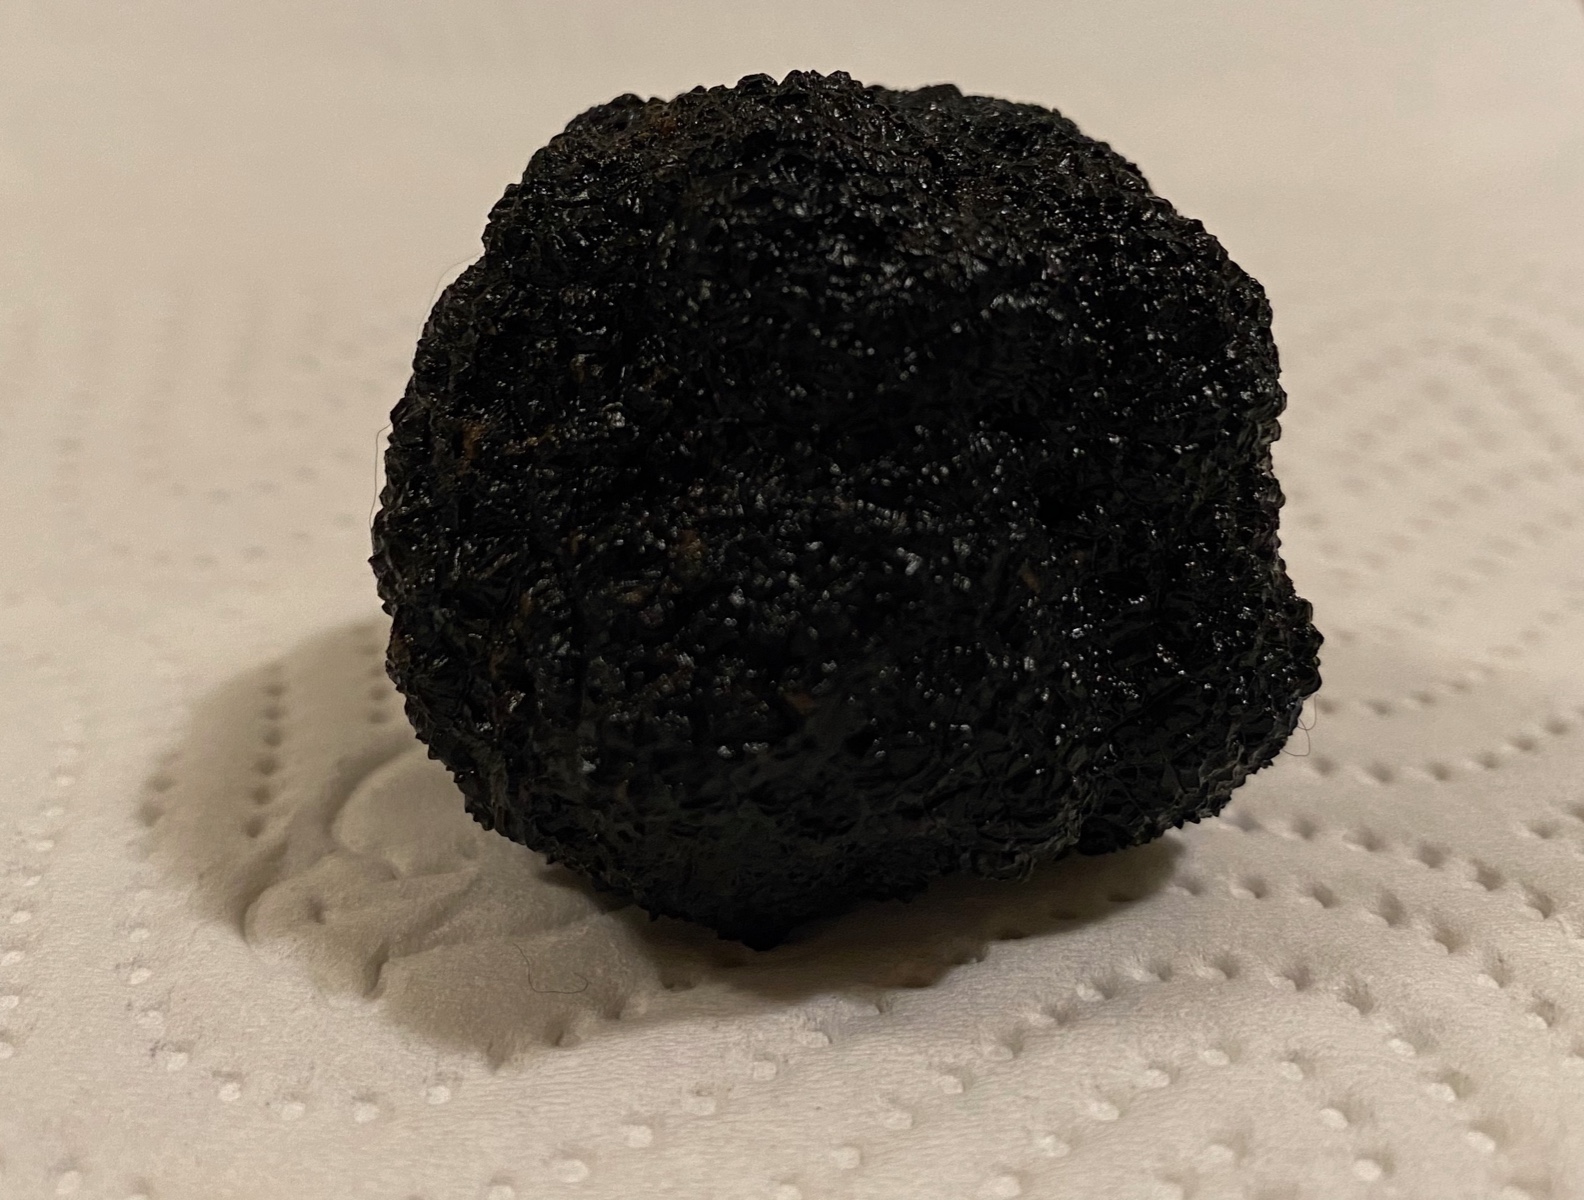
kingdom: Fungi
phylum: Ascomycota
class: Pezizomycetes
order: Pezizales
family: Tuberaceae
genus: Tuber
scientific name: Tuber aestivum
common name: sommer-trøffel
